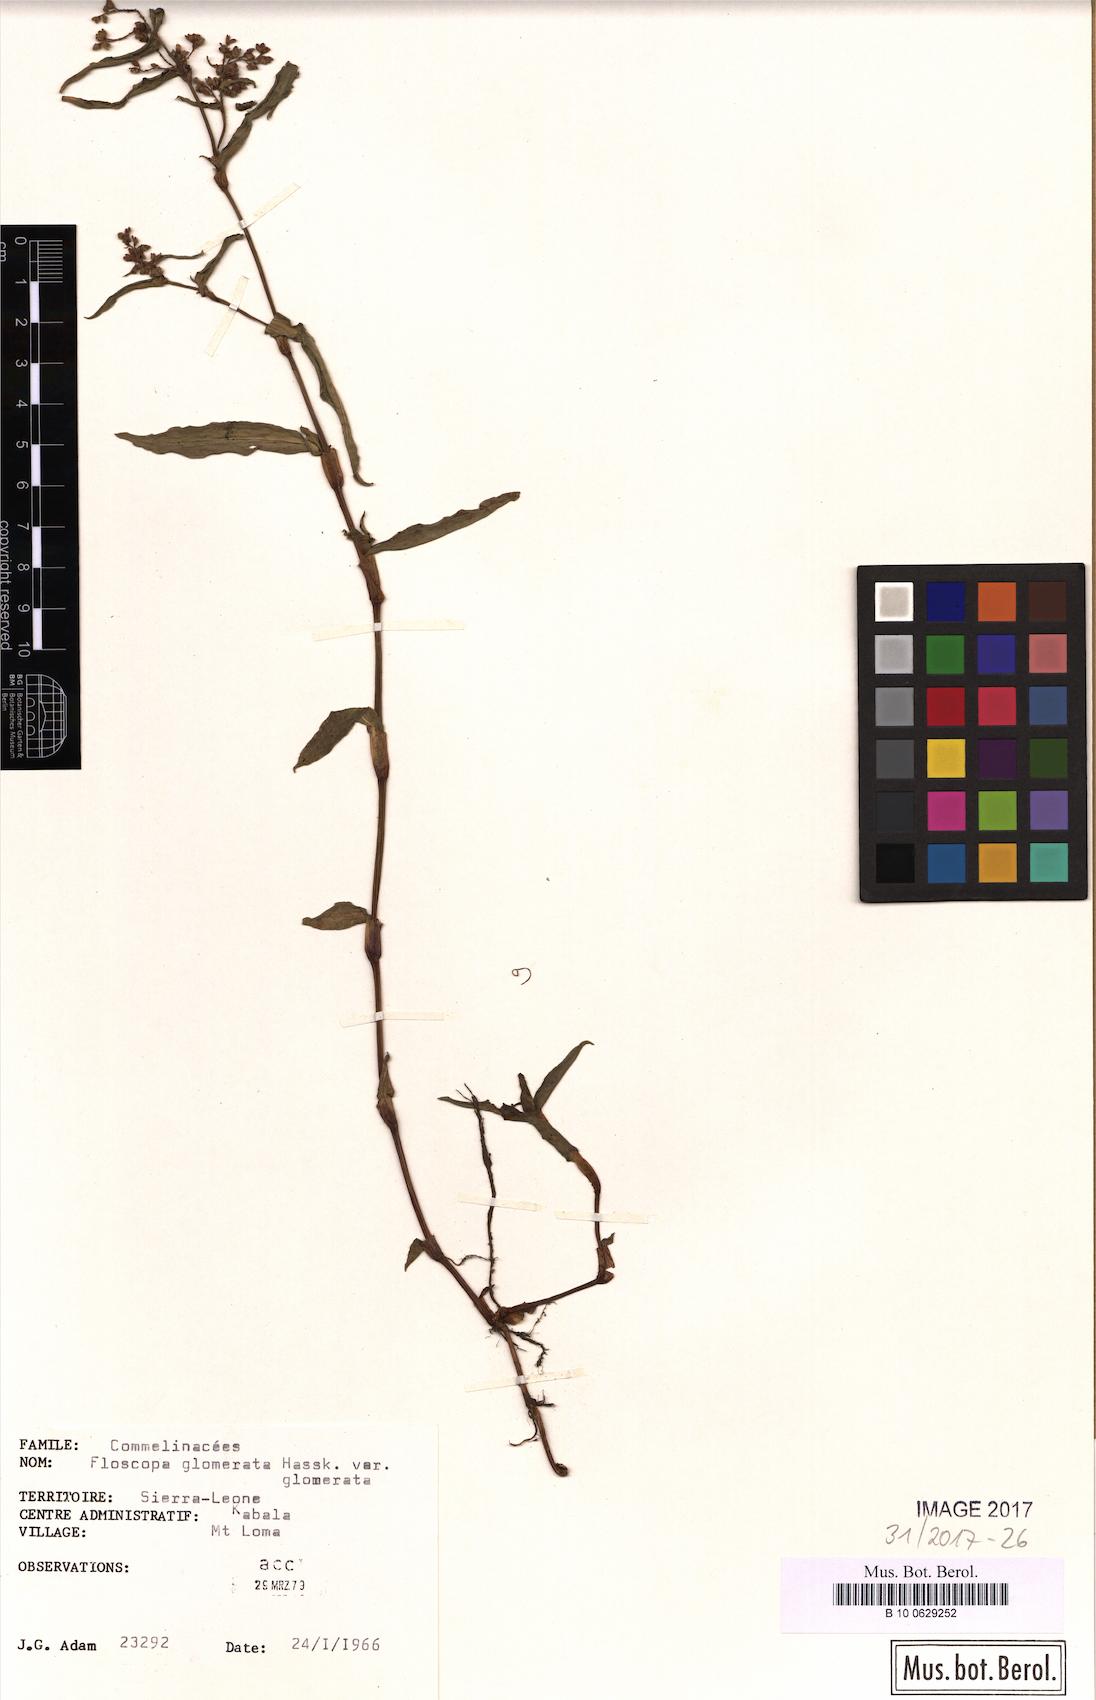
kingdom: Plantae
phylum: Tracheophyta
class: Liliopsida
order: Commelinales
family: Commelinaceae
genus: Floscopa
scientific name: Floscopa glomerata
